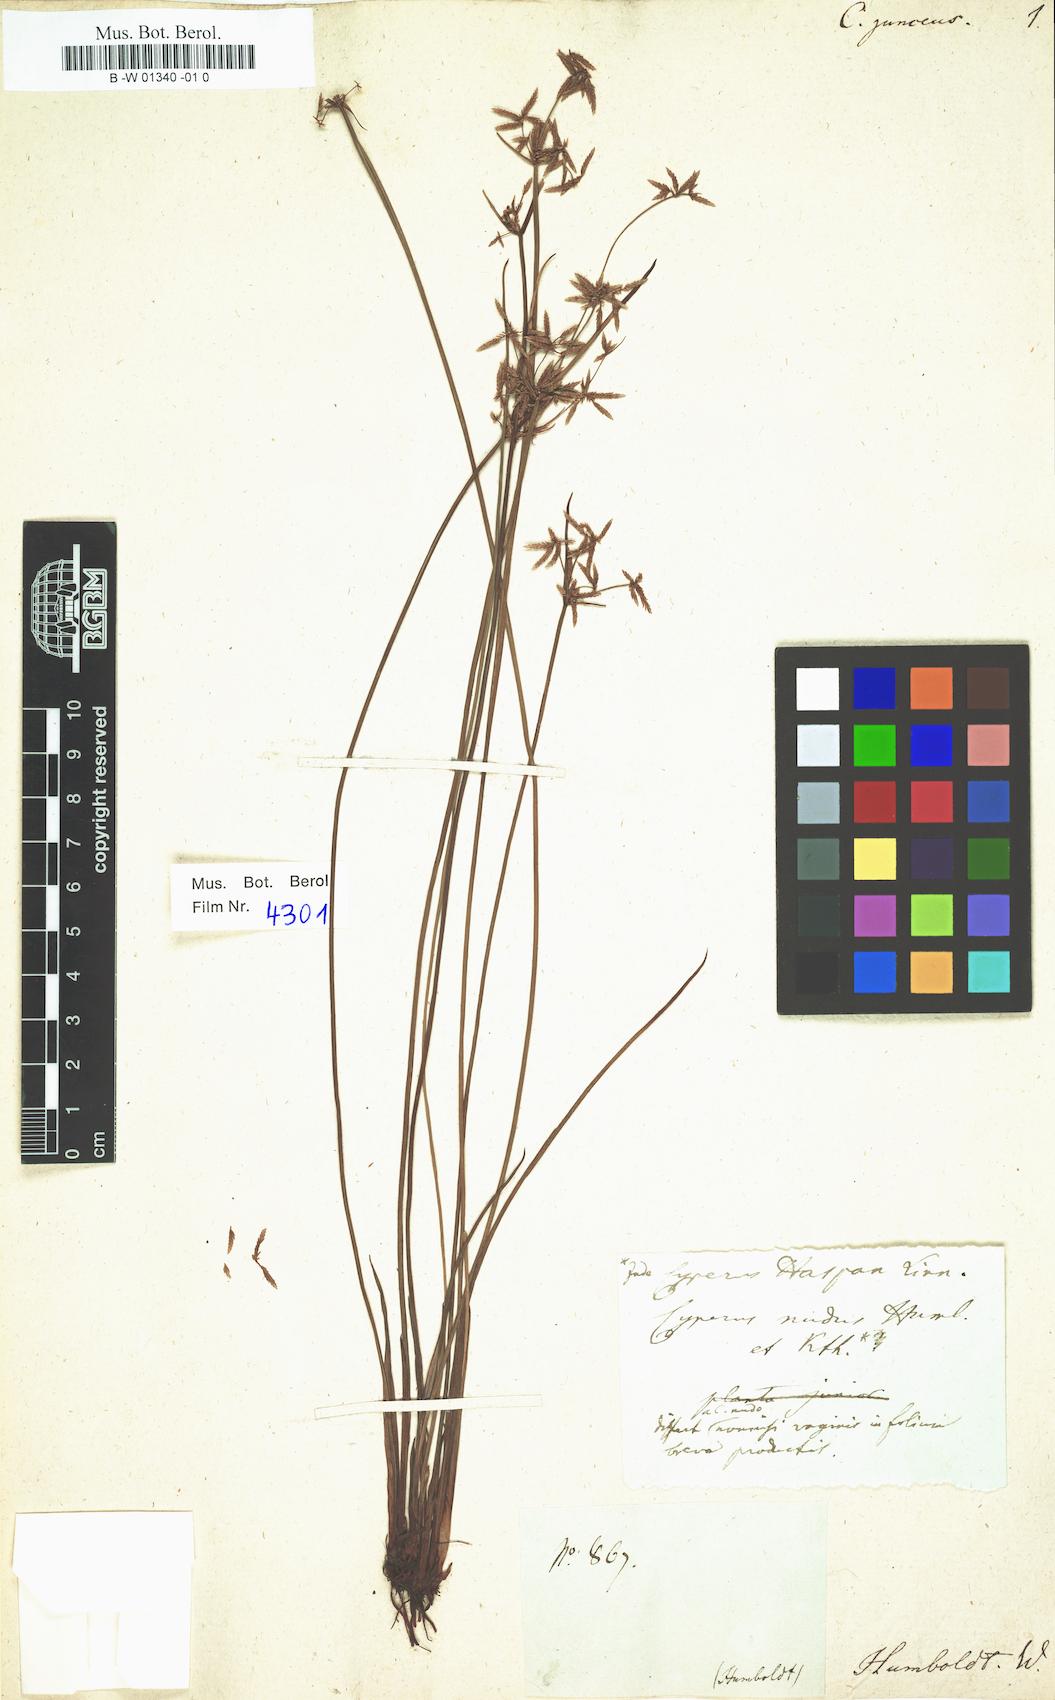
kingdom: Plantae
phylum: Tracheophyta
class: Liliopsida
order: Poales
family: Cyperaceae
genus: Cyperus
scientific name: Cyperus haspan
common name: Haspan flatsedge
